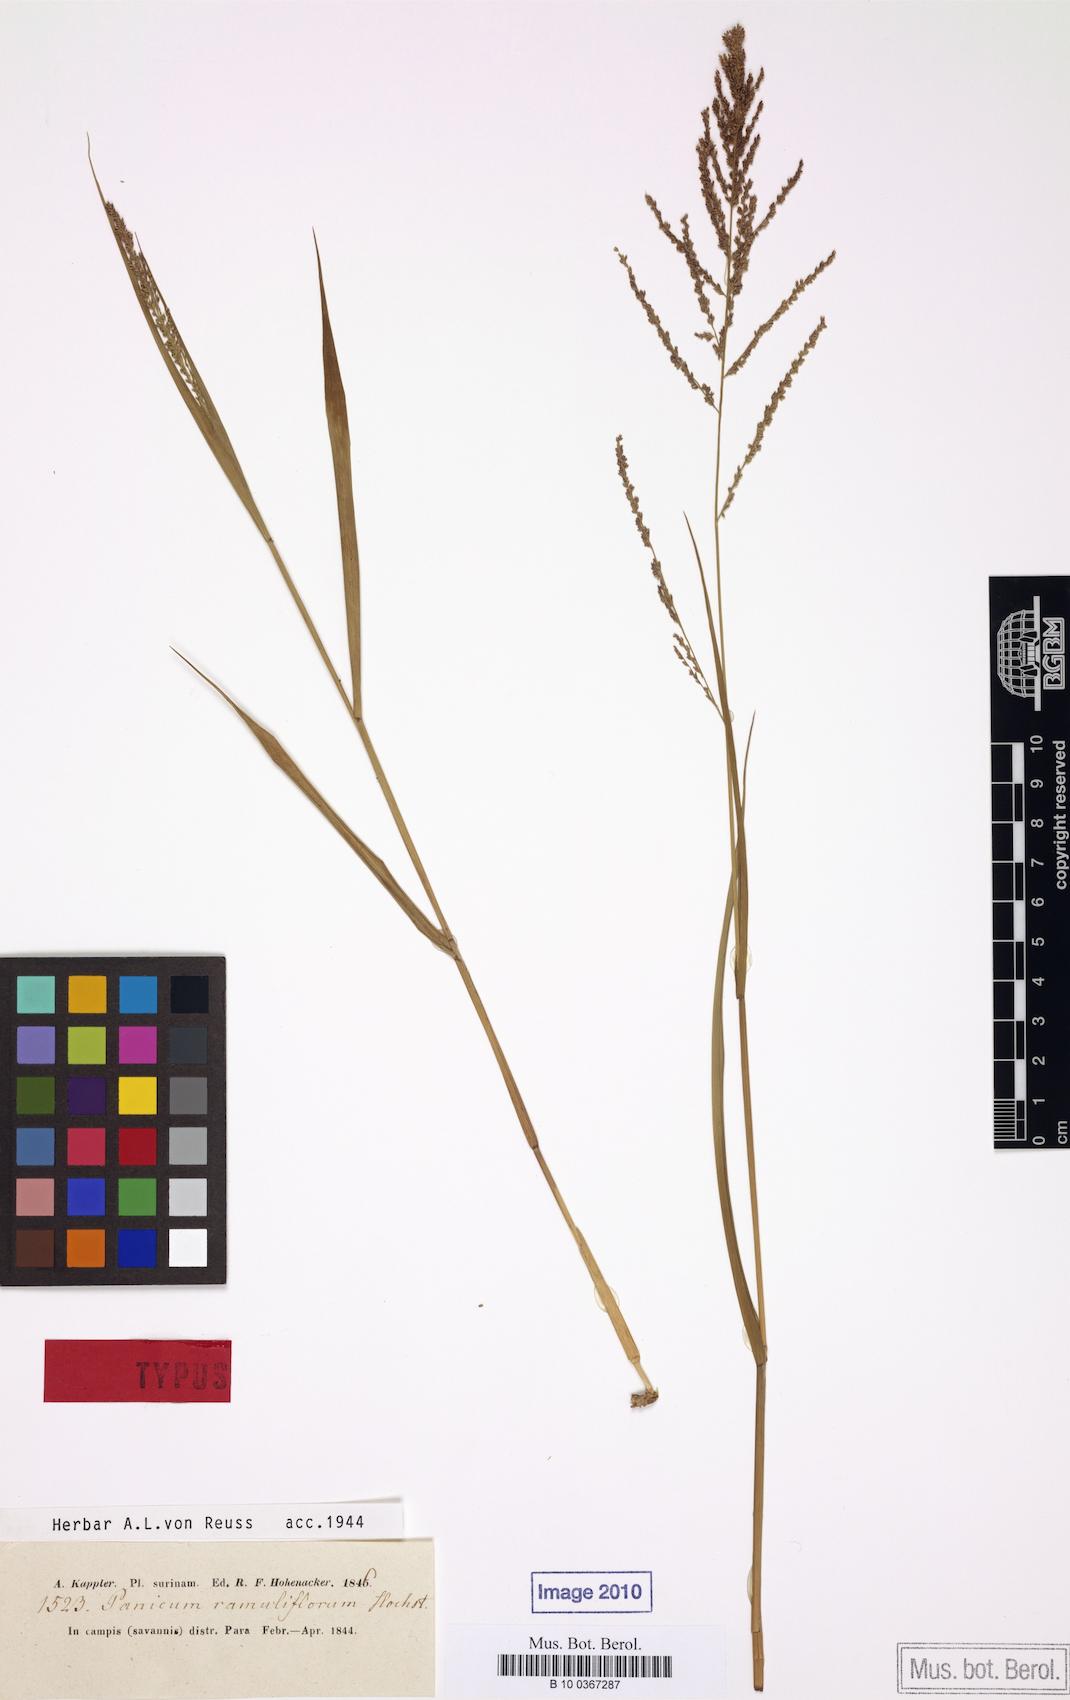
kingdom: Plantae
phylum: Tracheophyta
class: Liliopsida
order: Poales
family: Poaceae
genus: Steinchisma
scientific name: Steinchisma laxum
